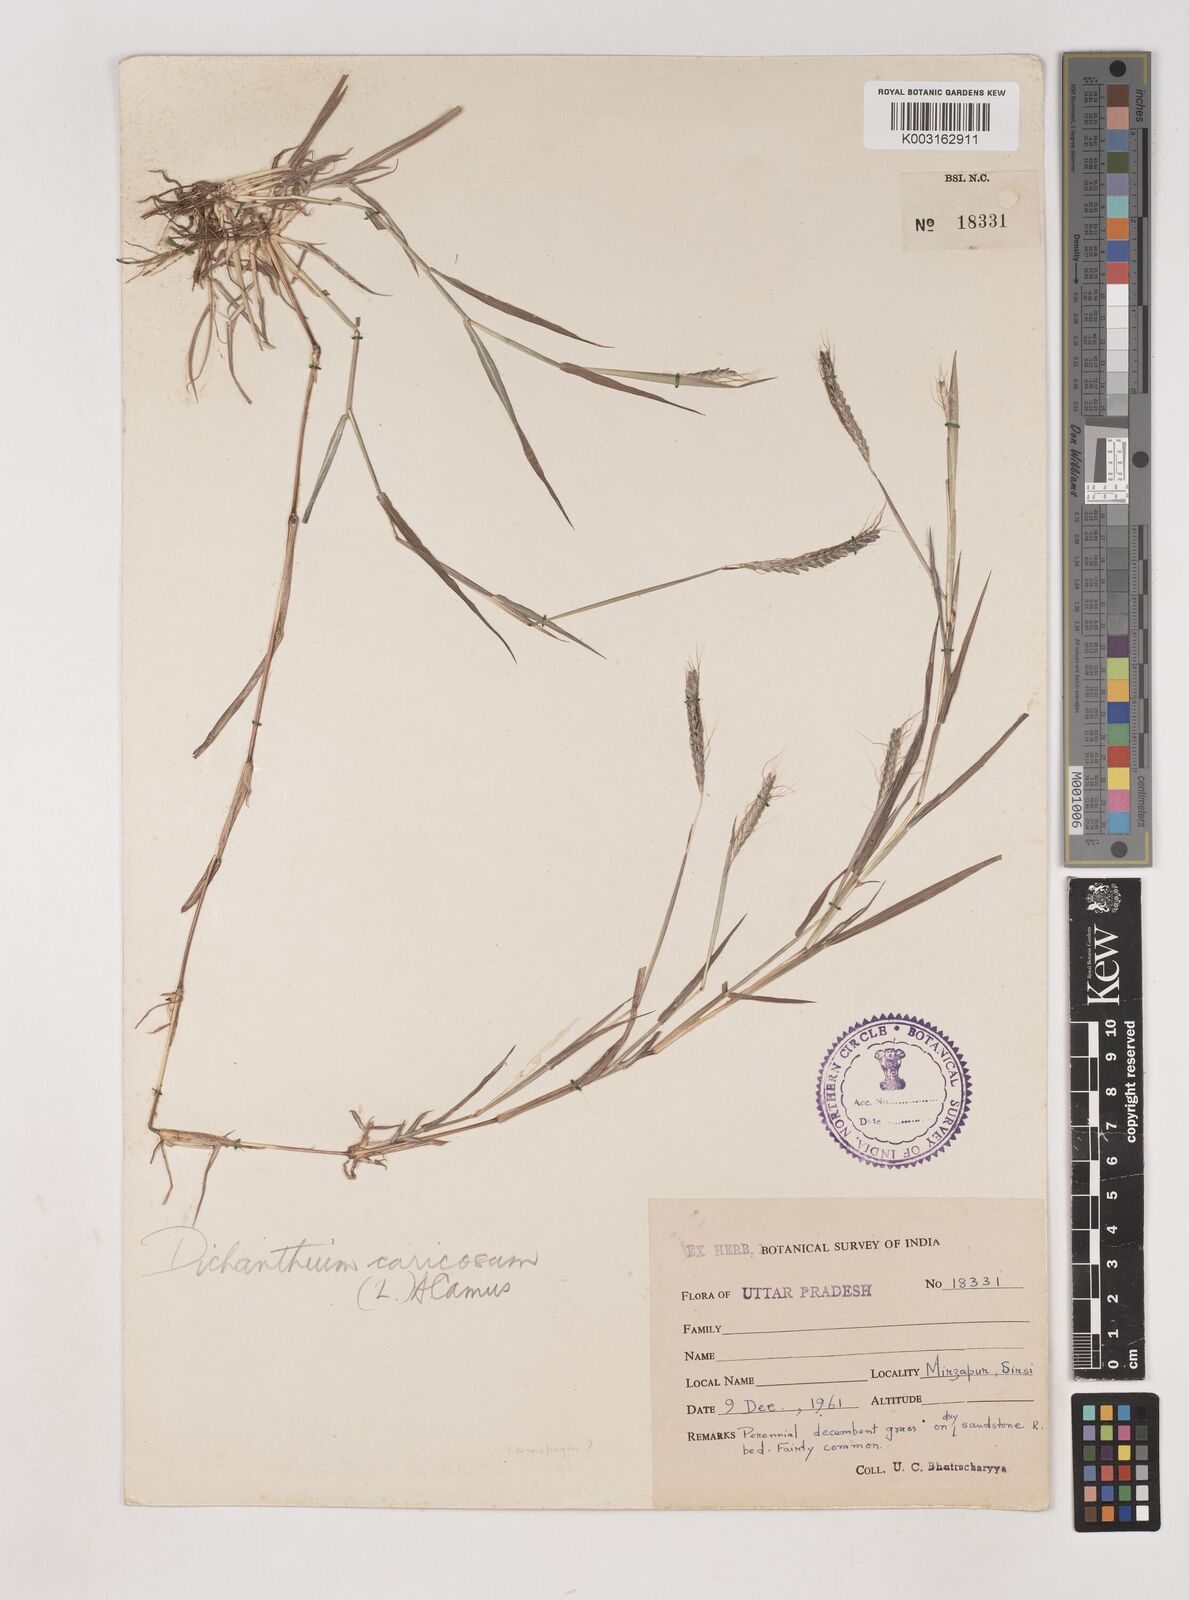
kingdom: Plantae
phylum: Tracheophyta
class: Liliopsida
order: Poales
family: Poaceae
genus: Dichanthium
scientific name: Dichanthium aristatum
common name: Angleton bluestem
